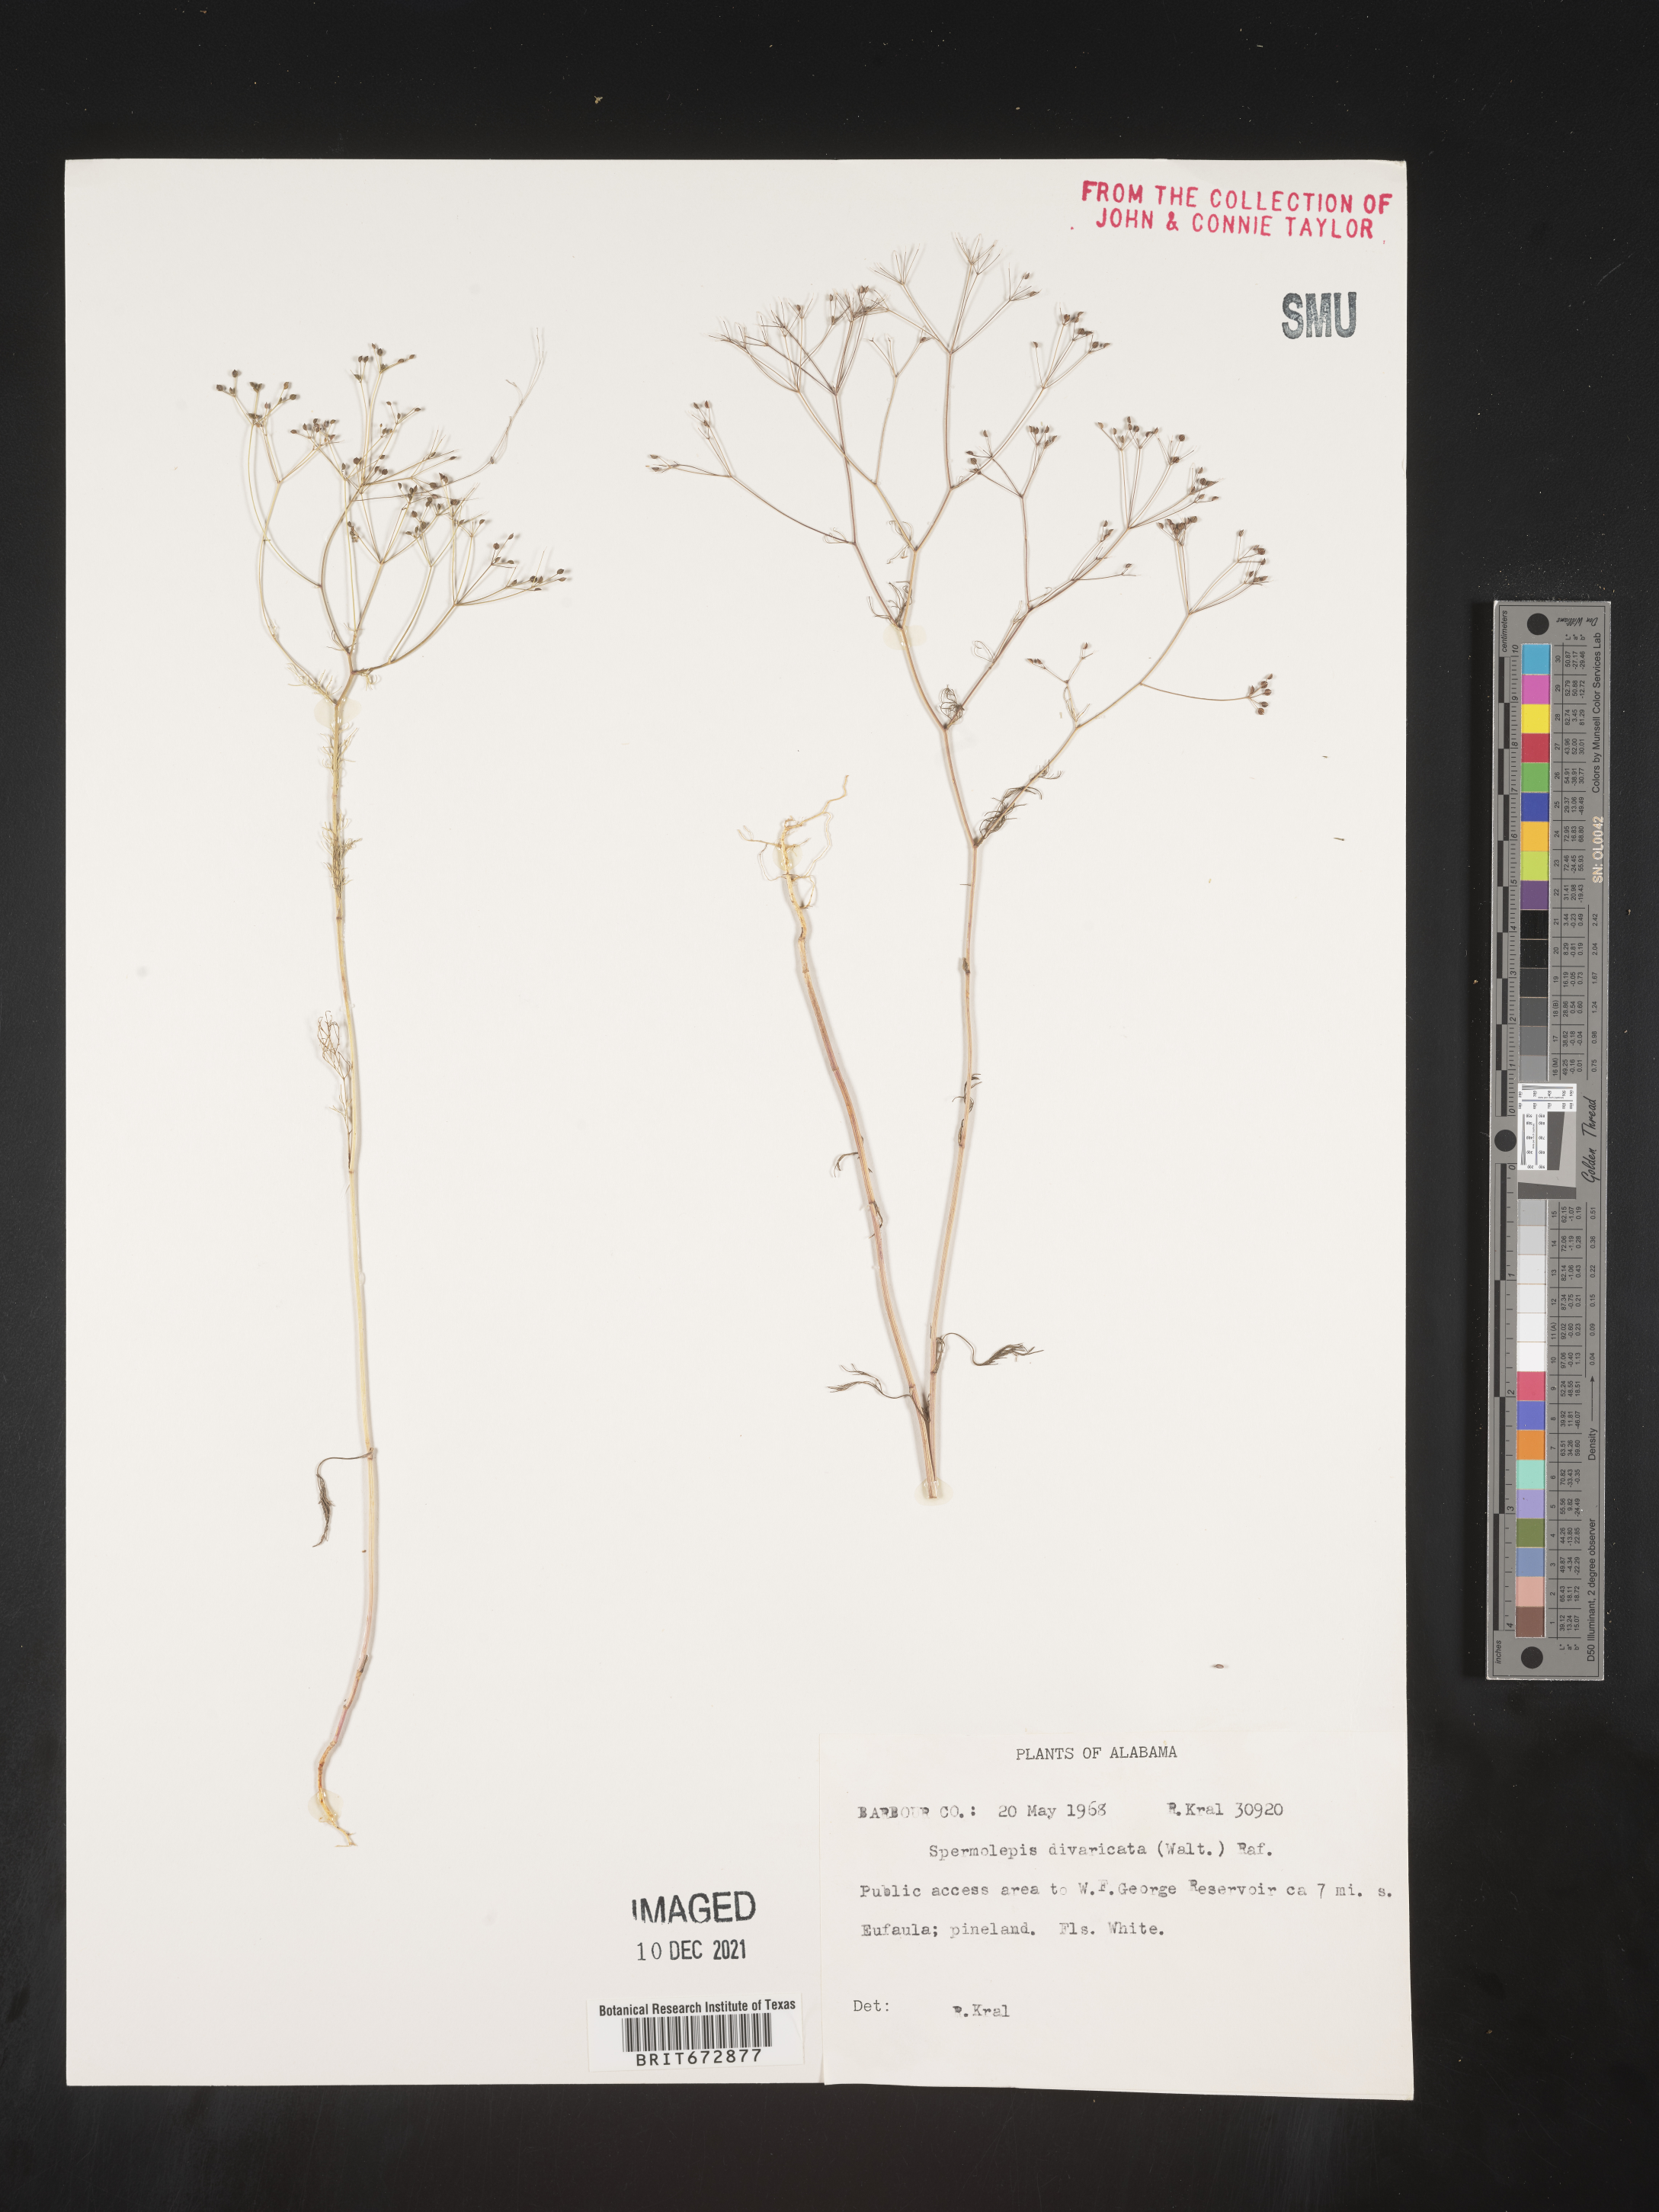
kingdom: Plantae
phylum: Tracheophyta
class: Magnoliopsida
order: Apiales
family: Apiaceae
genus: Spermolepis
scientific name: Spermolepis divaricata
